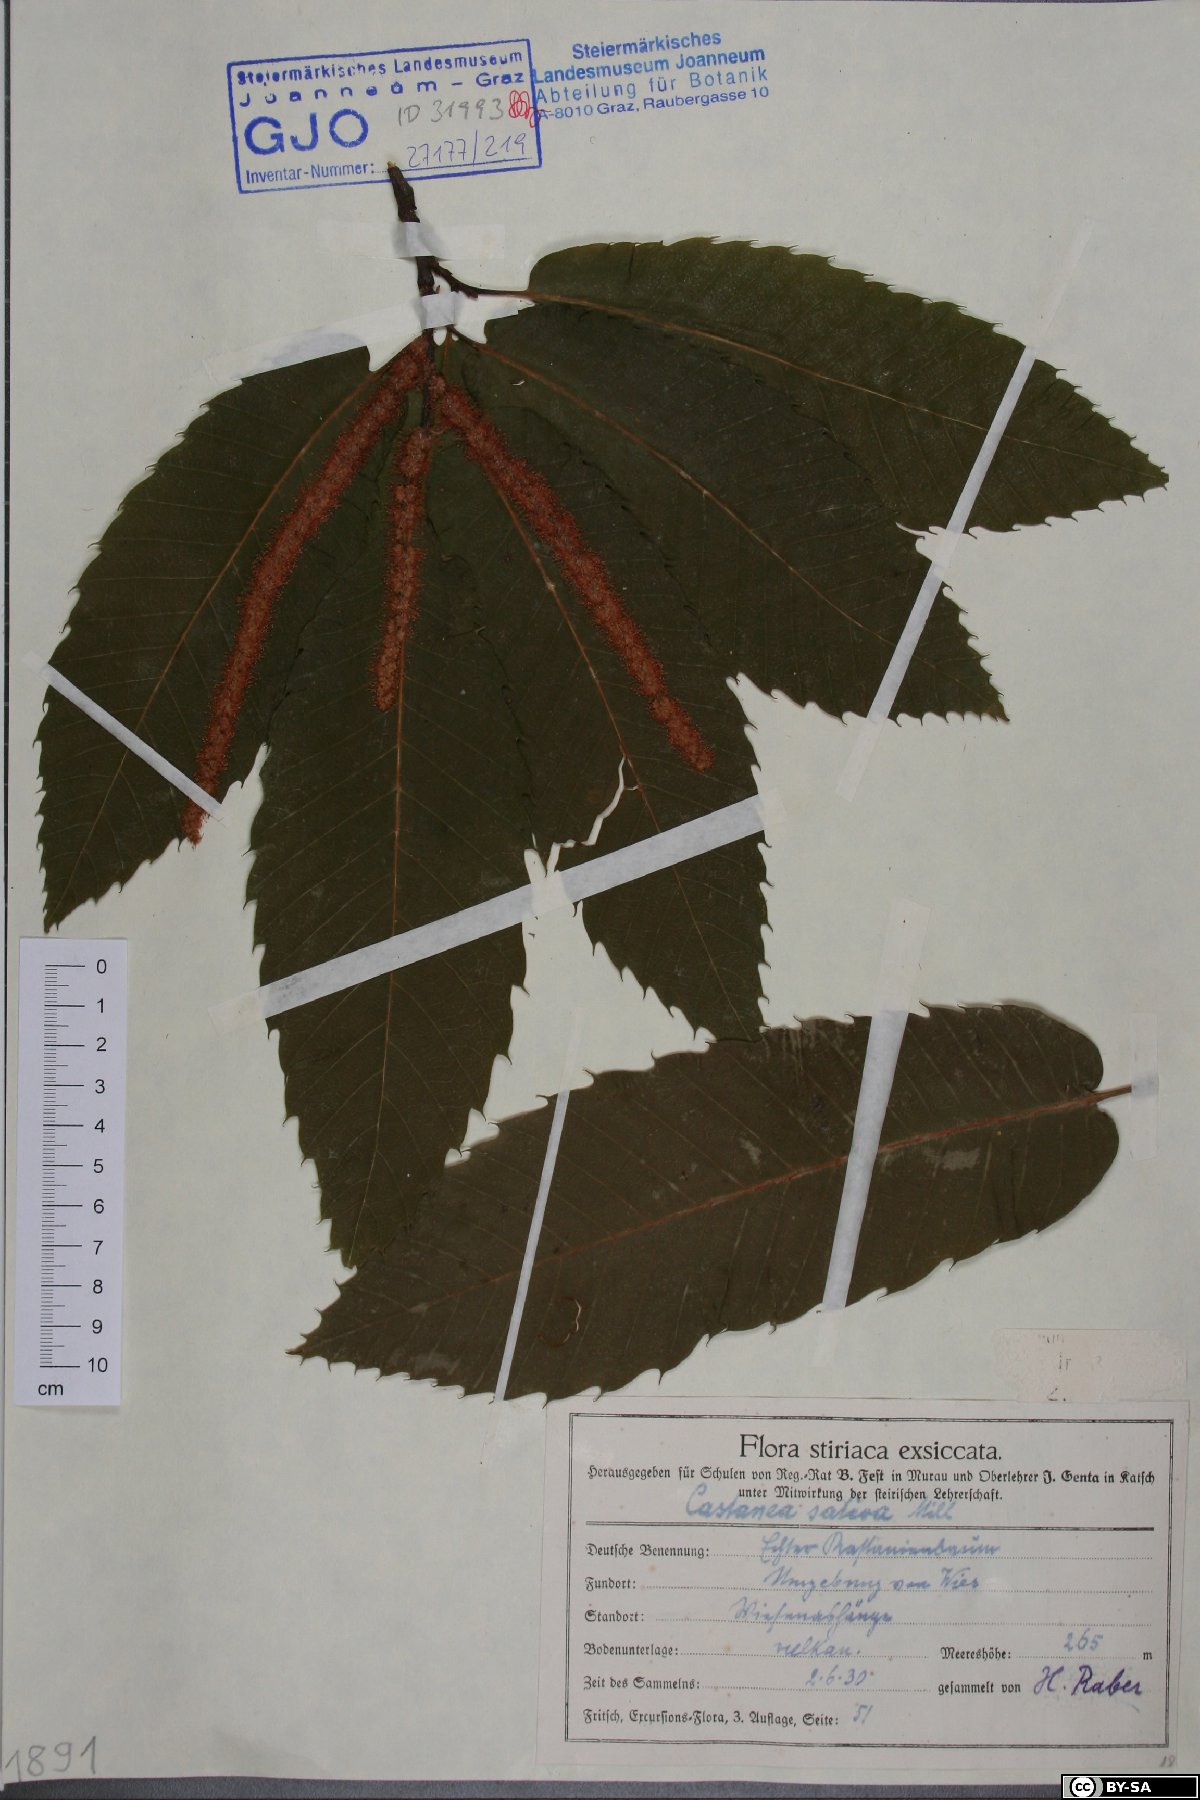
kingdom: Plantae
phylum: Tracheophyta
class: Magnoliopsida
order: Fagales
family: Fagaceae
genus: Castanea
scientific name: Castanea sativa
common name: Sweet chestnut
